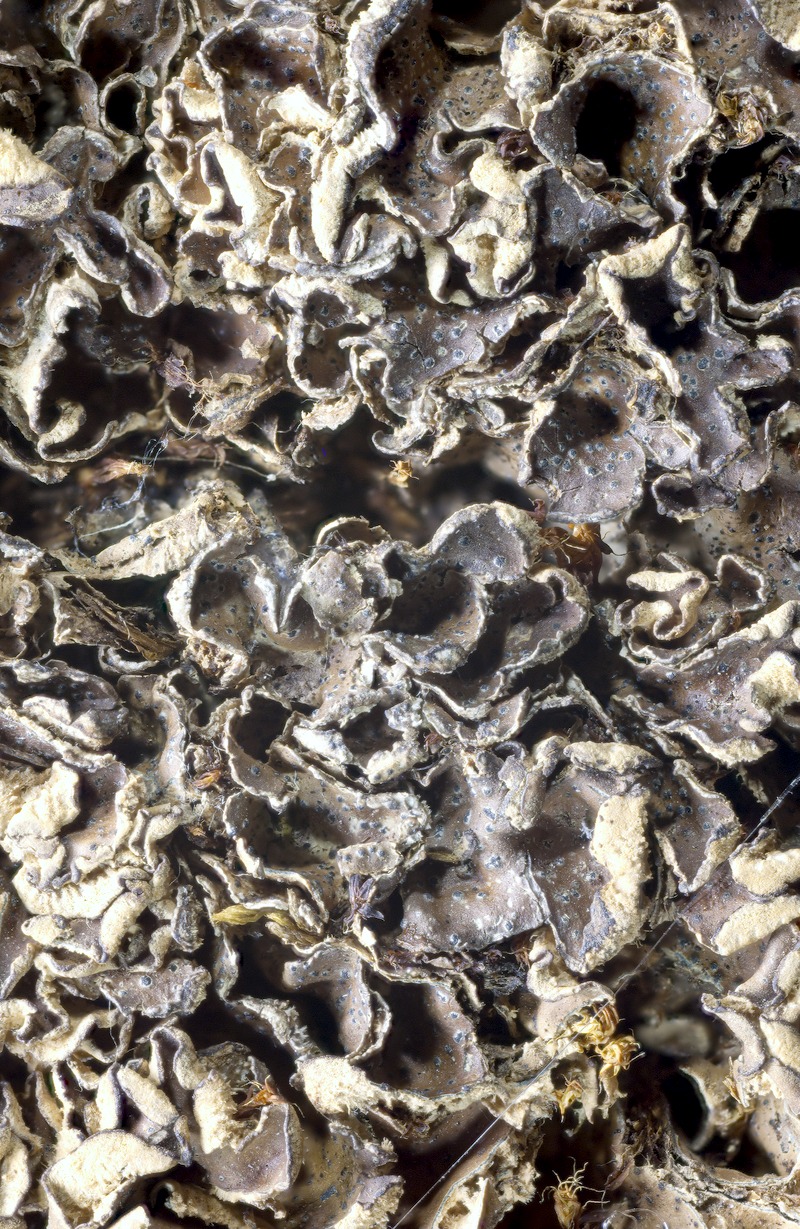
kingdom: Fungi
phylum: Ascomycota
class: Lecanoromycetes
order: Peltigerales
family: Peltigeraceae
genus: Peltigera
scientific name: Peltigera polydactylon
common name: Many-fruited pelt lichen
